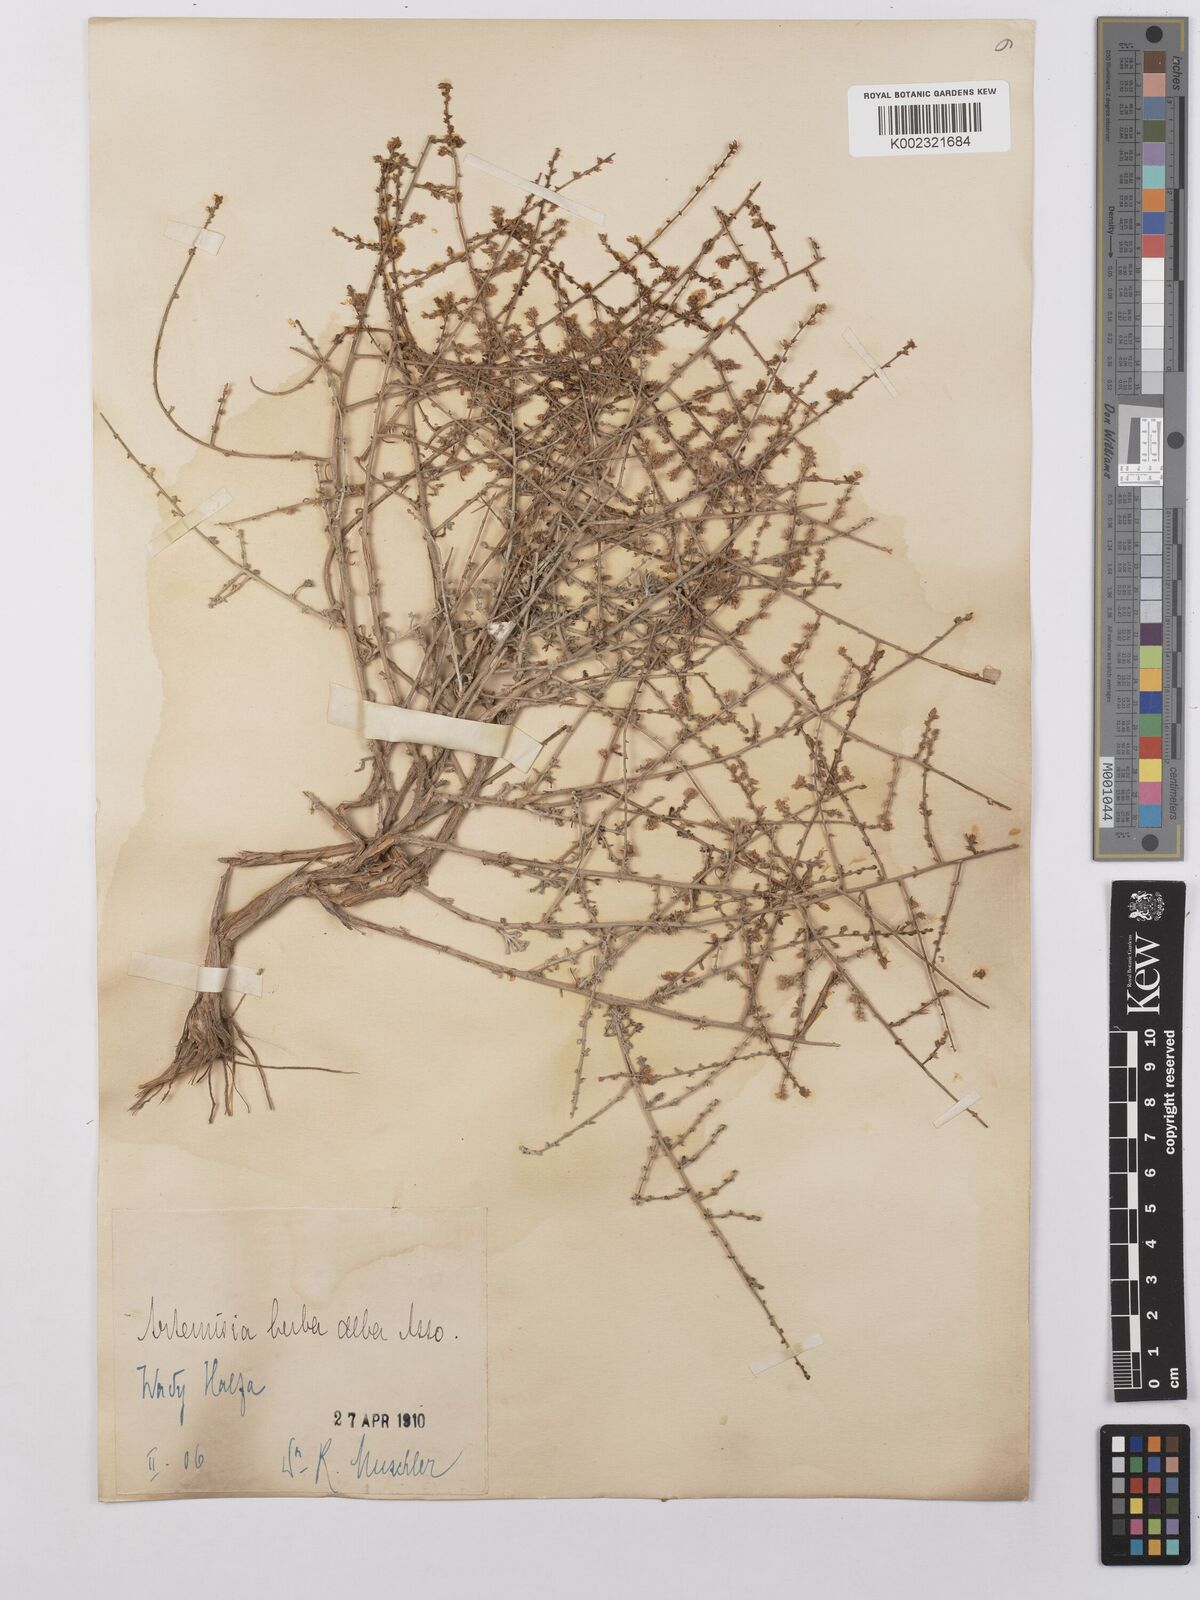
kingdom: Plantae
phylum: Tracheophyta
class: Magnoliopsida
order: Asterales
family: Asteraceae
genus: Artemisia
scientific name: Artemisia herba-alba
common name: White wormwood
